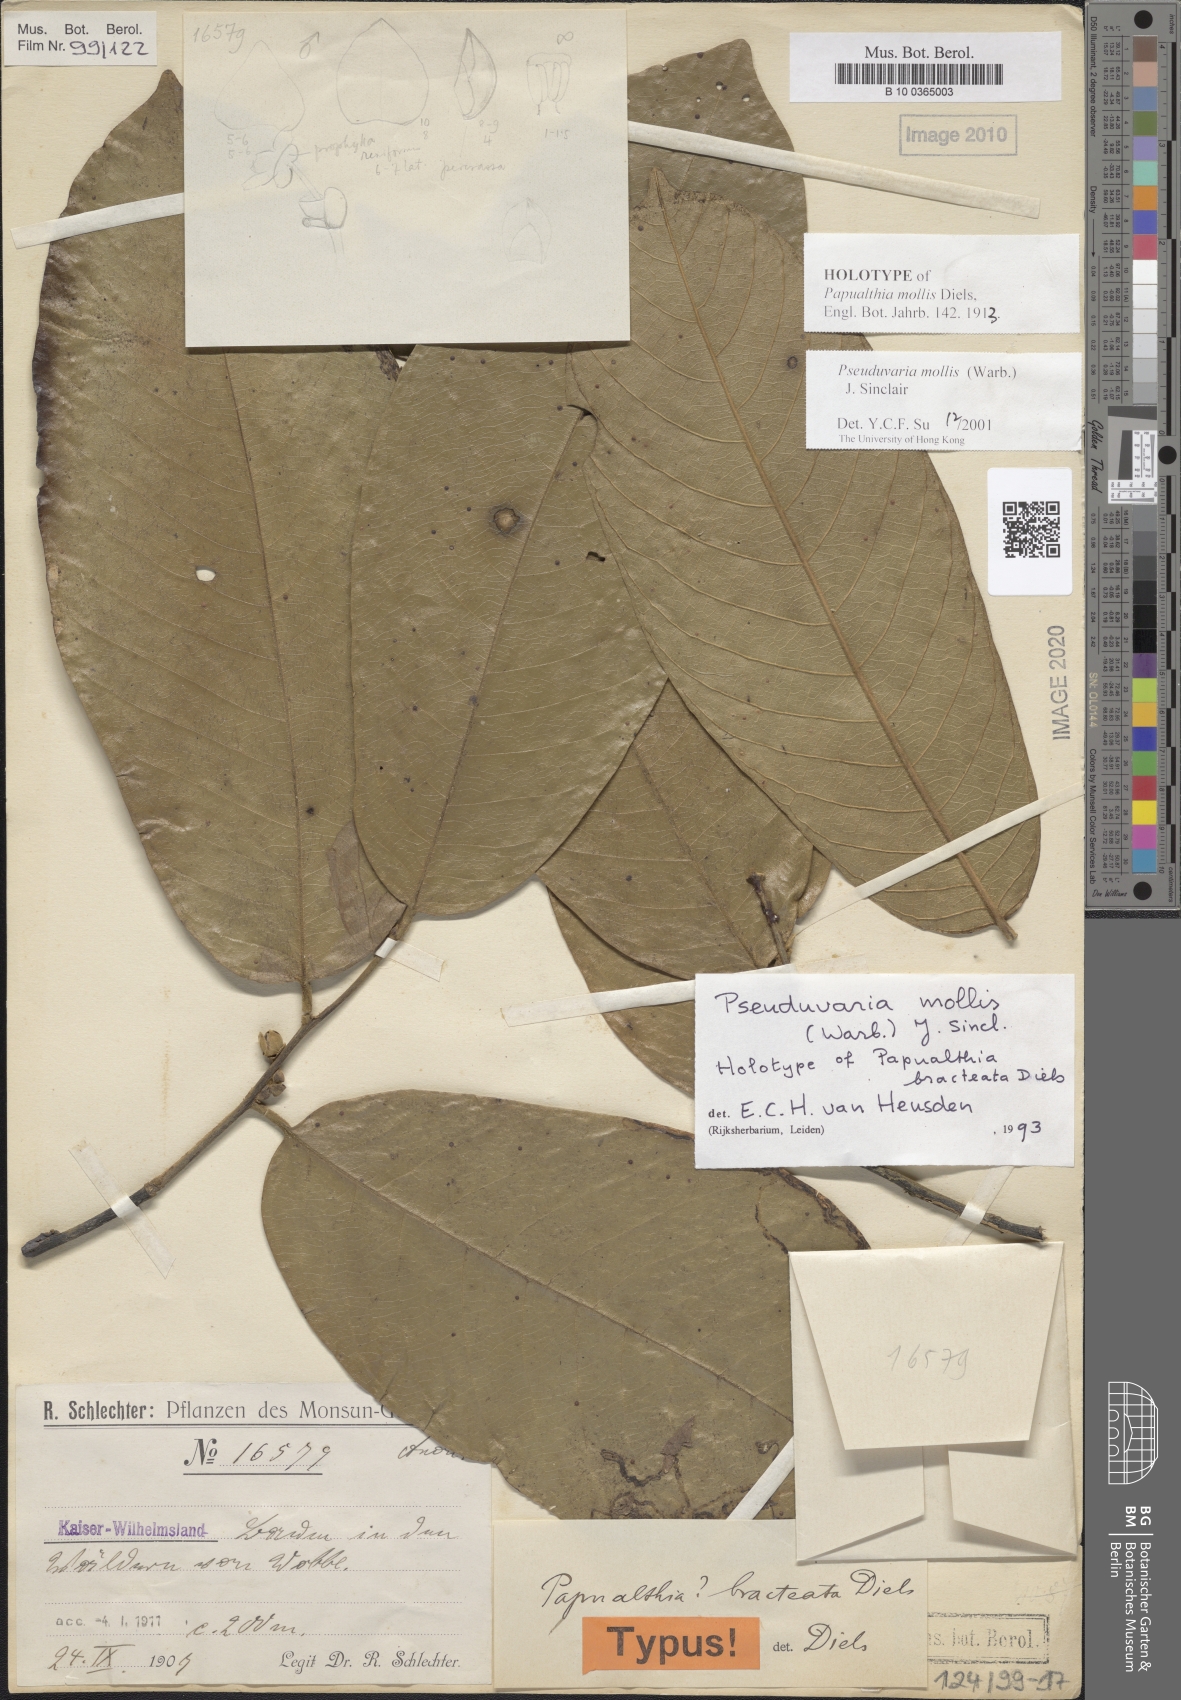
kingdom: Plantae
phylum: Tracheophyta
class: Magnoliopsida
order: Magnoliales
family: Annonaceae
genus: Pseuduvaria
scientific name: Pseuduvaria mollis
